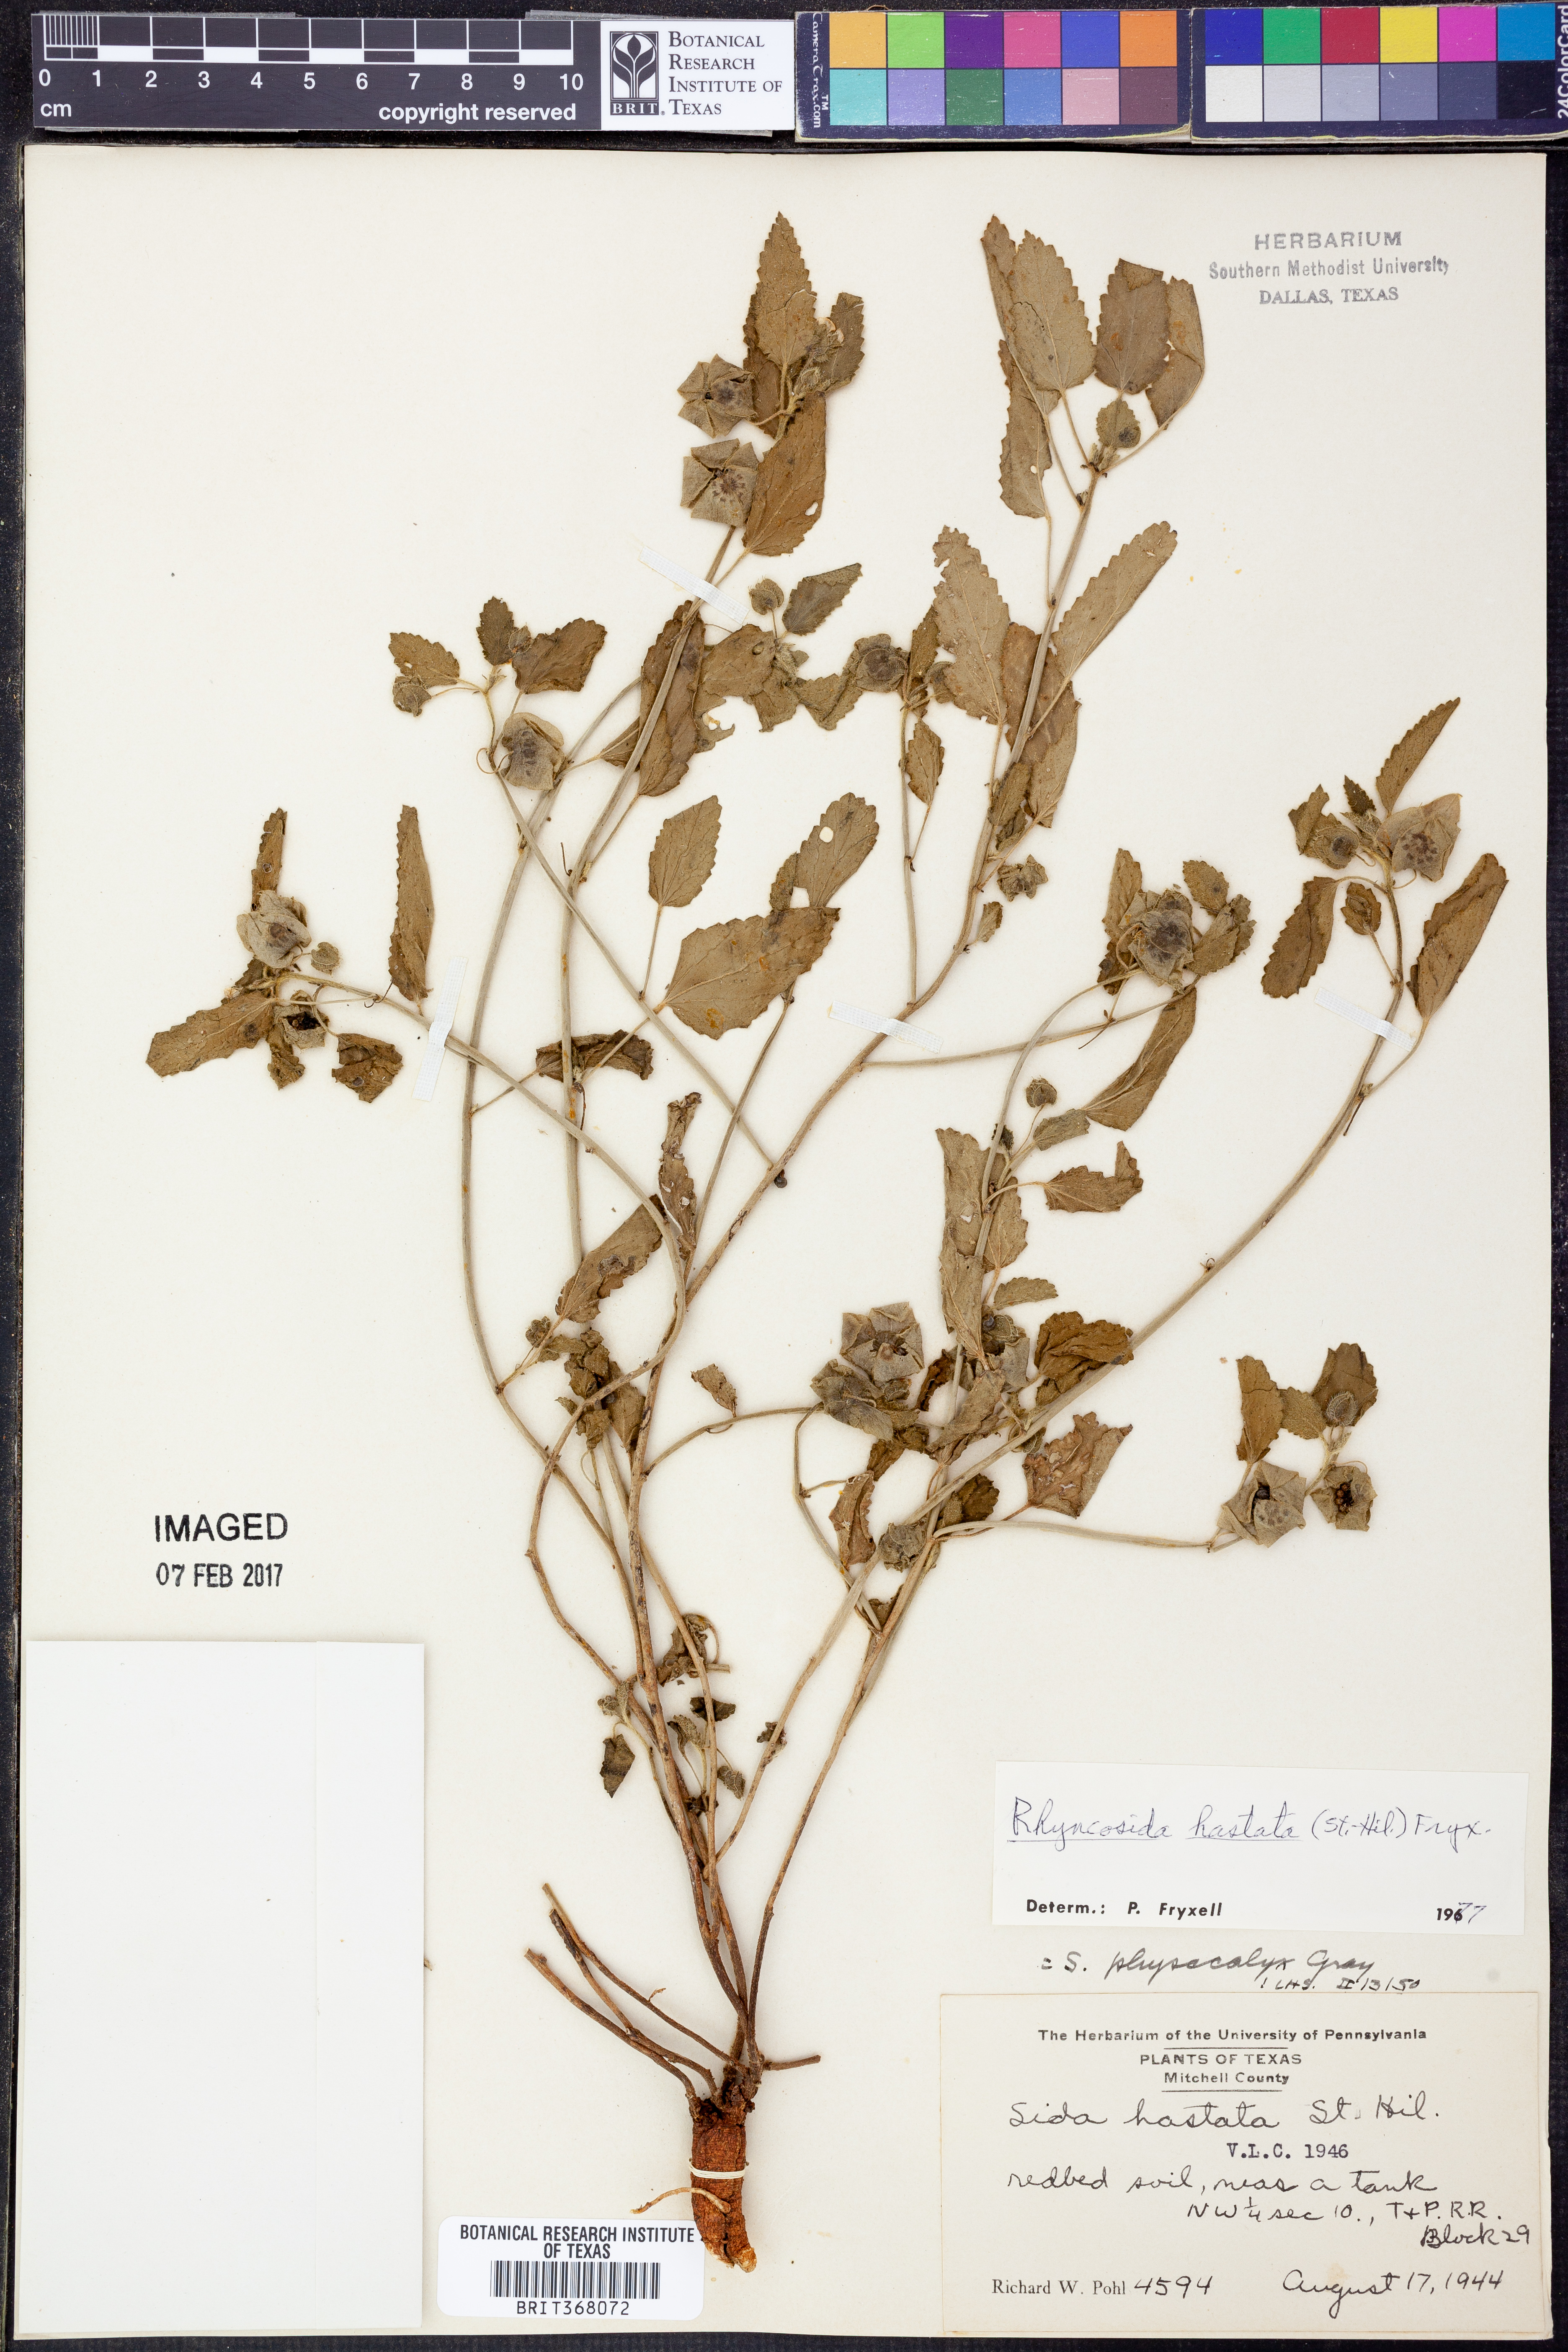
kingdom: Plantae
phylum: Tracheophyta
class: Magnoliopsida
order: Malvales
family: Malvaceae
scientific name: Malvaceae
